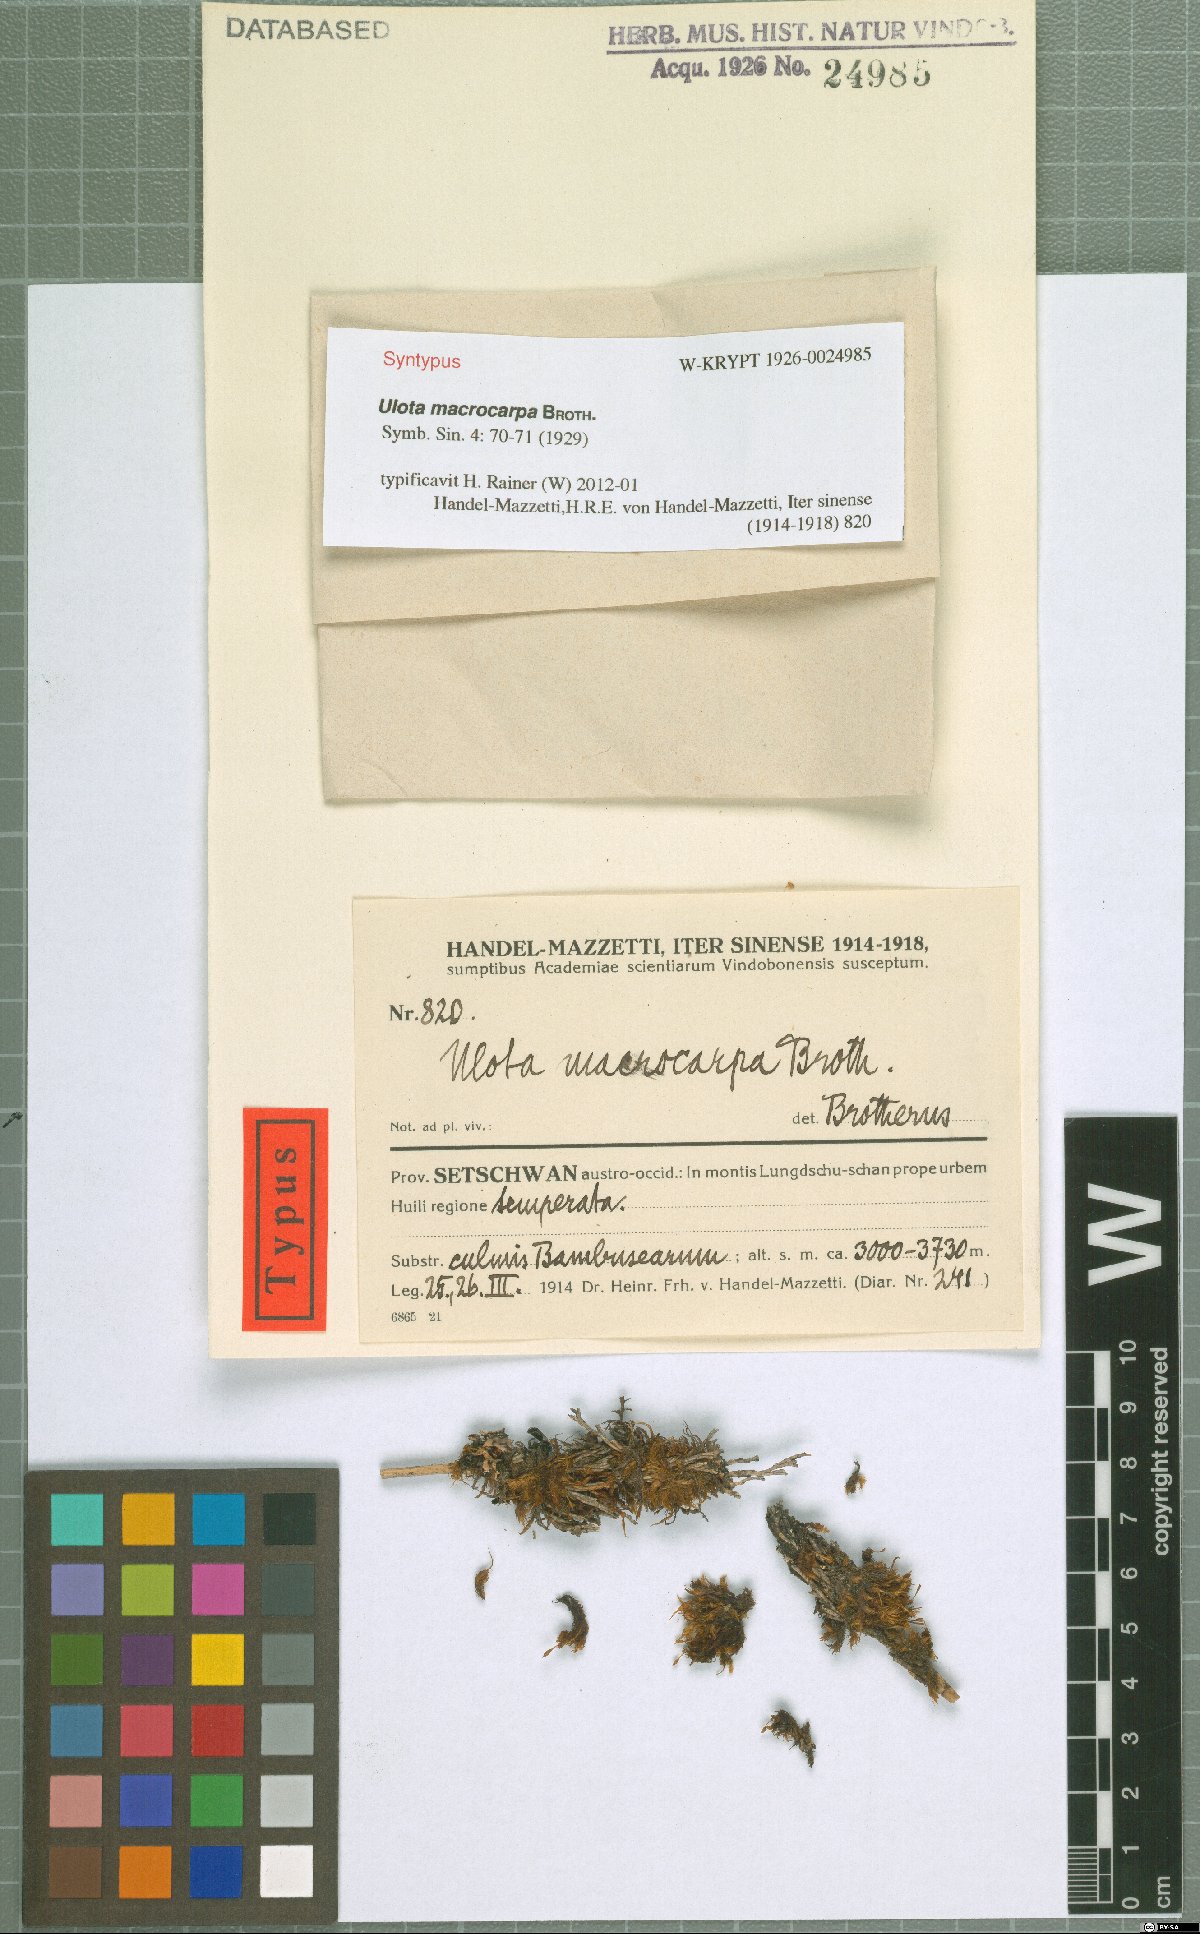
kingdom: Plantae
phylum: Bryophyta
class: Bryopsida
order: Orthotrichales
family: Orthotrichaceae
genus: Ulota
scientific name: Ulota crispa
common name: Crisped pincushion moss
